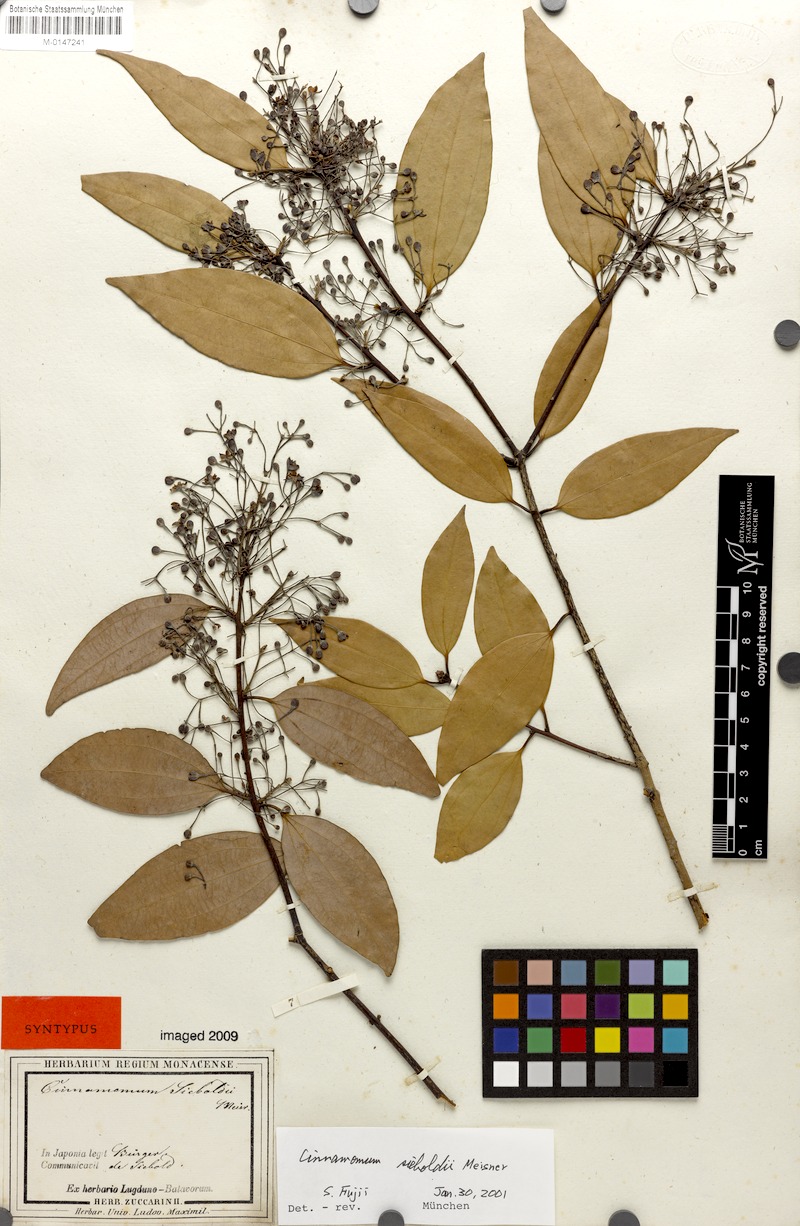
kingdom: Plantae
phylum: Tracheophyta
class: Magnoliopsida
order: Laurales
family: Lauraceae
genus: Cinnamomum
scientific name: Cinnamomum sieboldii
